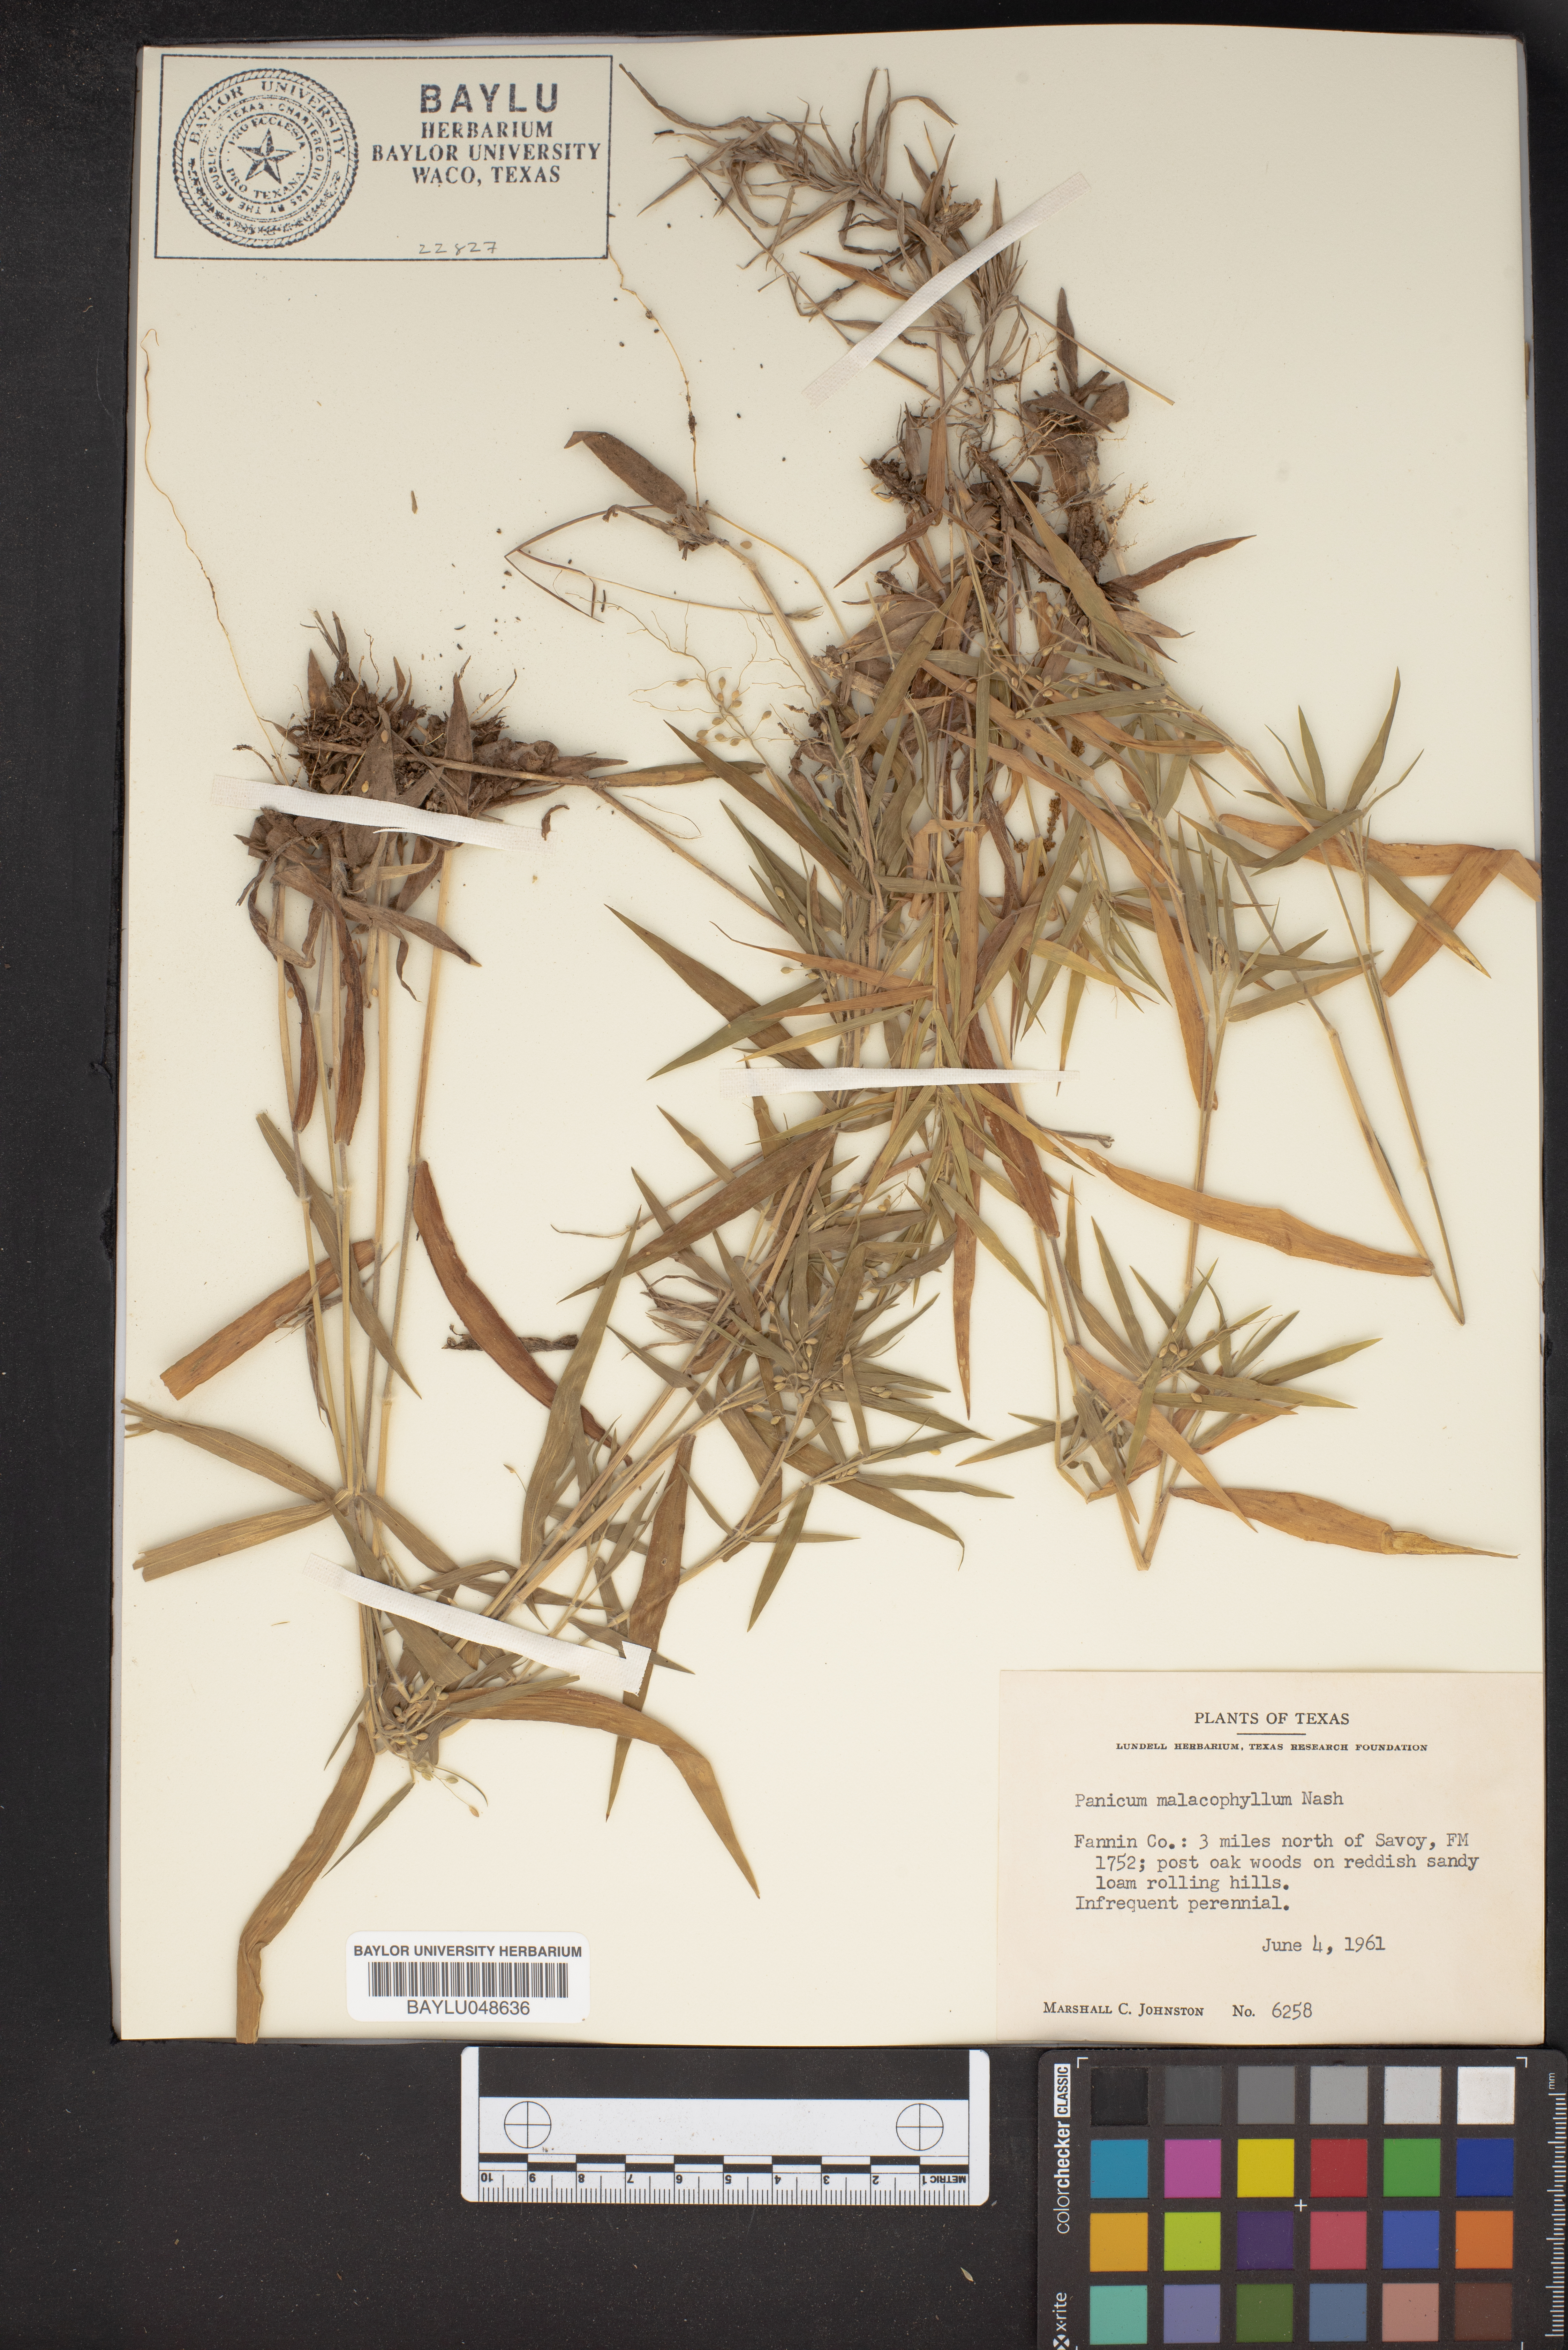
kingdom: Plantae
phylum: Tracheophyta
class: Liliopsida
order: Poales
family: Poaceae
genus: Dichanthelium
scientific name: Dichanthelium malacophyllum
